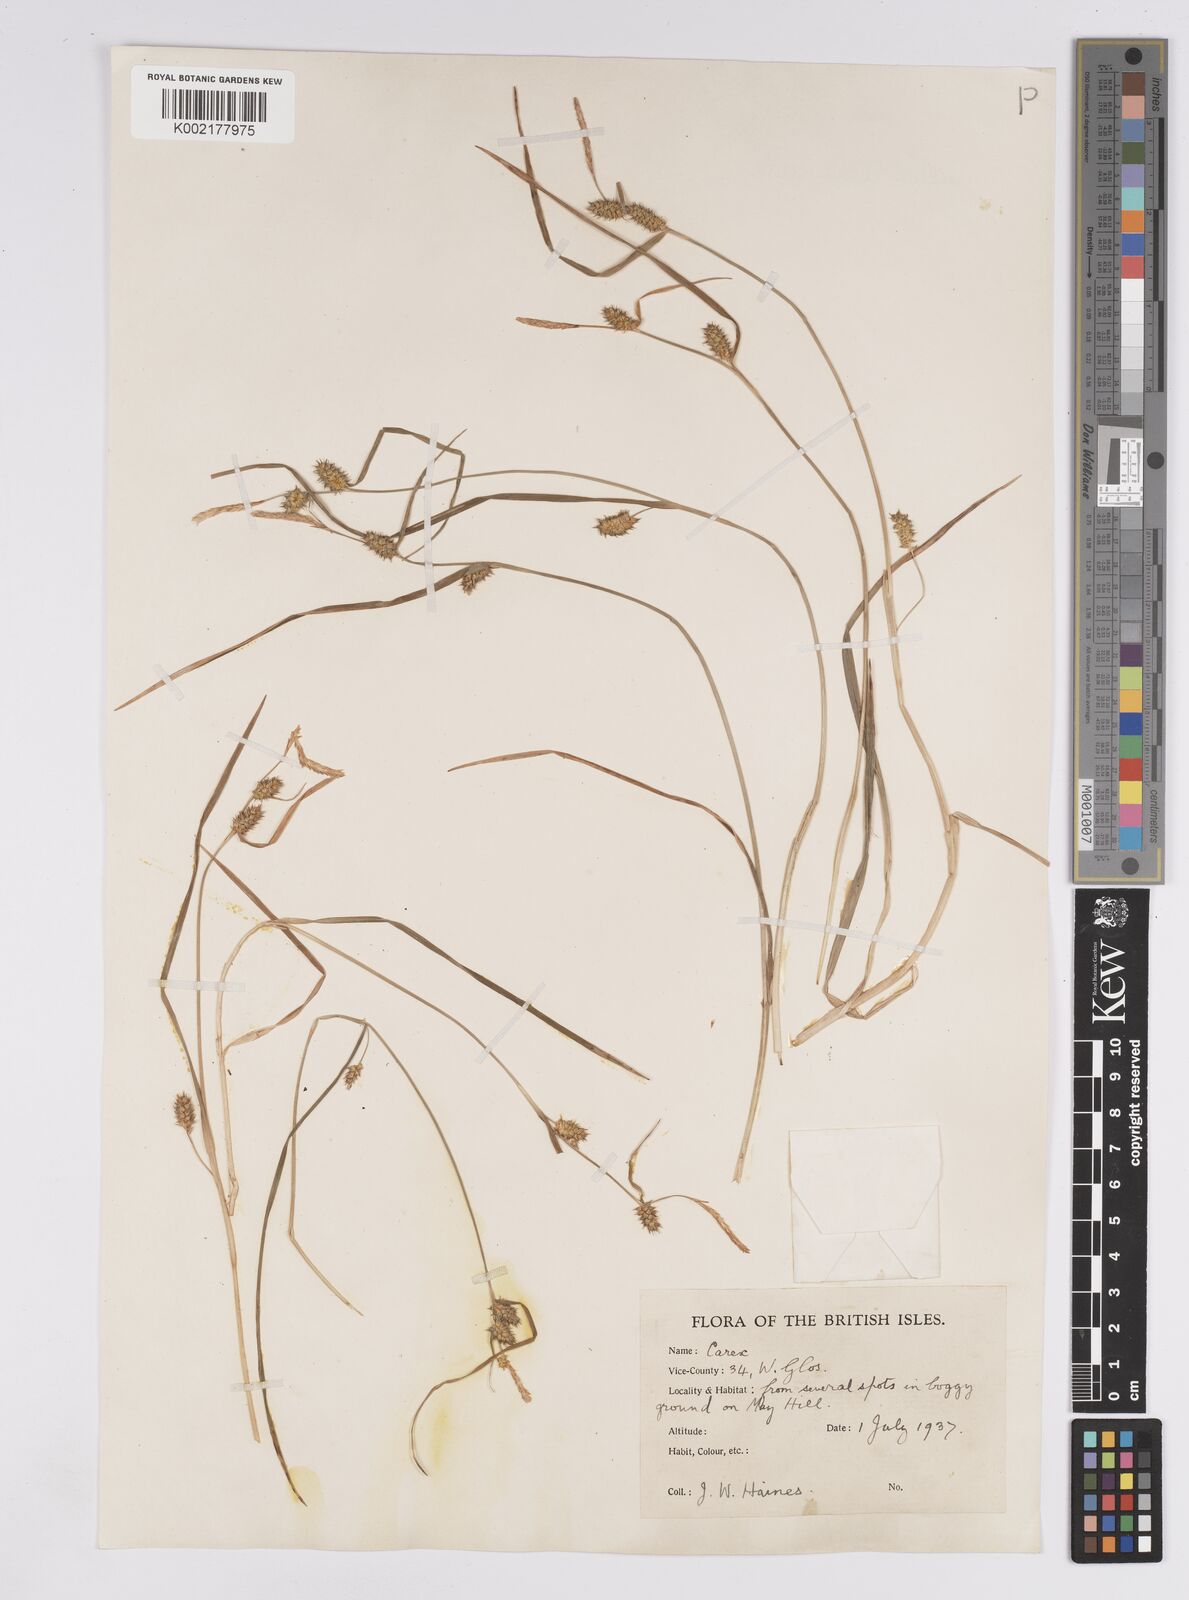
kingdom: Plantae
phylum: Tracheophyta
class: Liliopsida
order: Poales
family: Cyperaceae
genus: Carex
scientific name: Carex demissa
